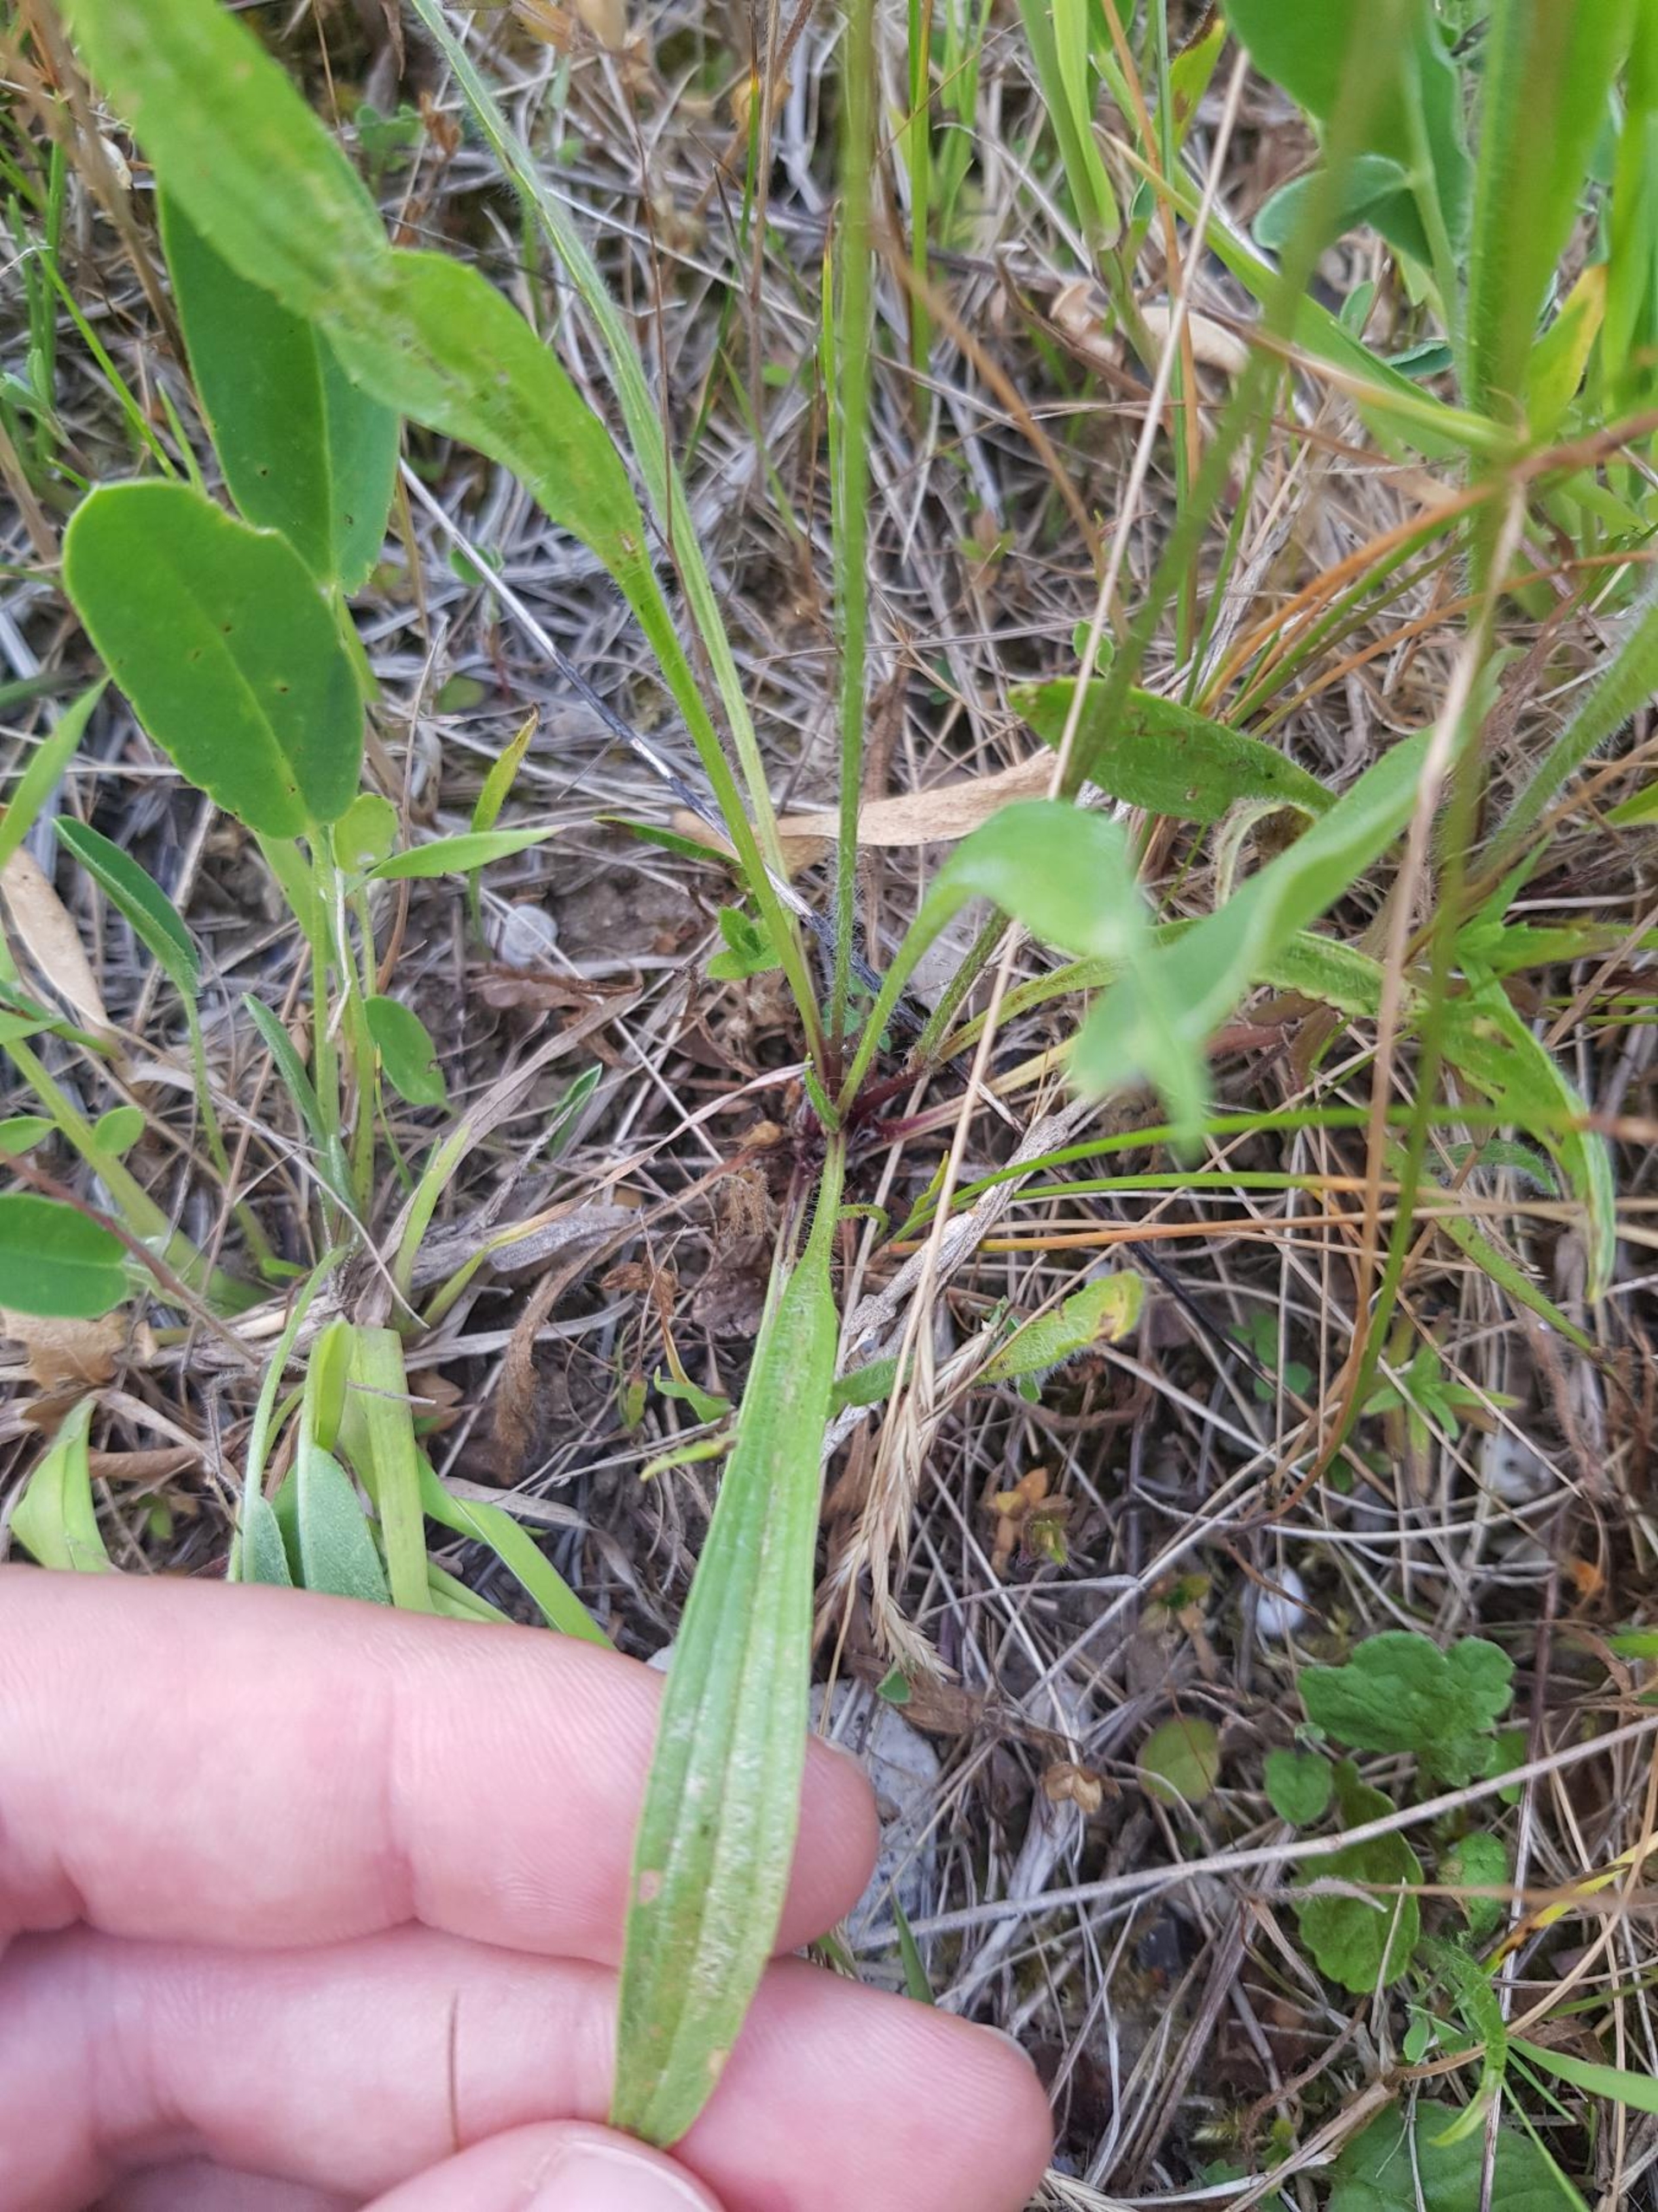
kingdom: Plantae
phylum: Tracheophyta
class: Magnoliopsida
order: Lamiales
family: Plantaginaceae
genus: Plantago
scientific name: Plantago lanceolata
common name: Lancet-vejbred
